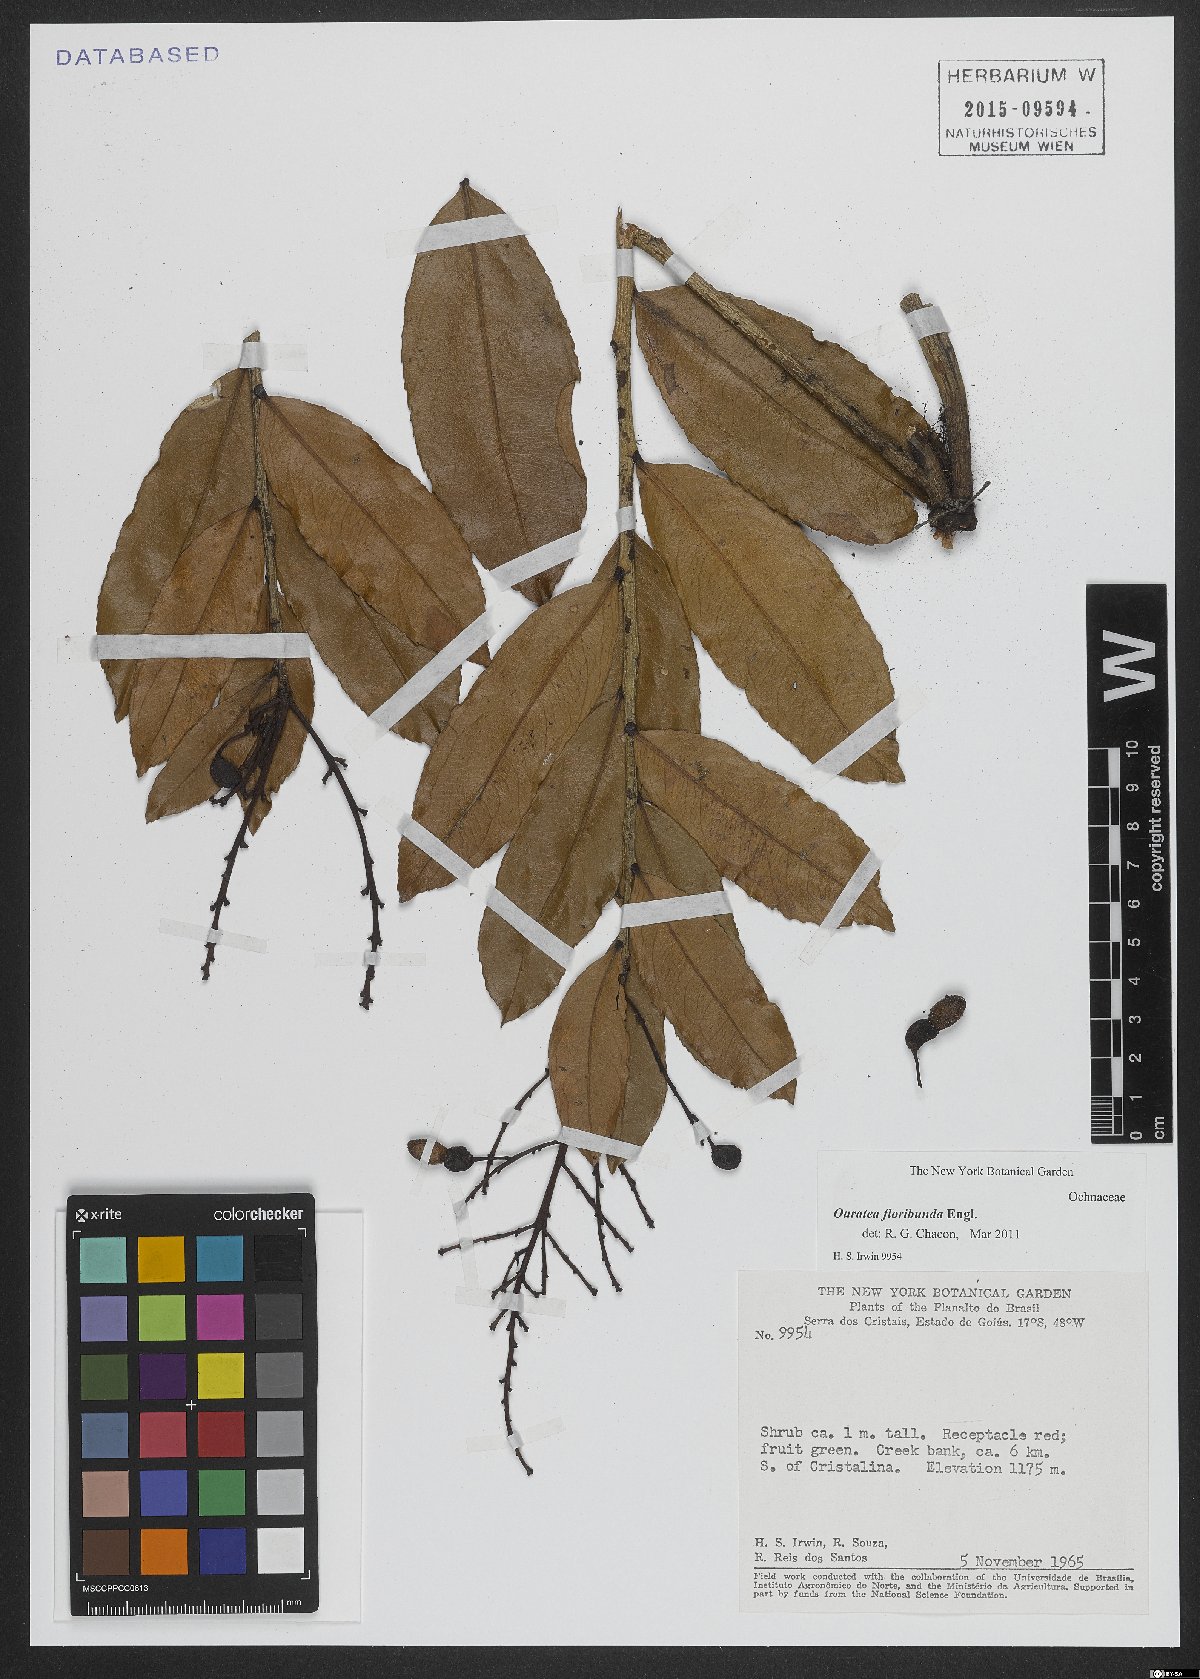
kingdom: Plantae
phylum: Tracheophyta
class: Magnoliopsida
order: Malpighiales
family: Ochnaceae
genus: Ouratea
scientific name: Ouratea floribunda
